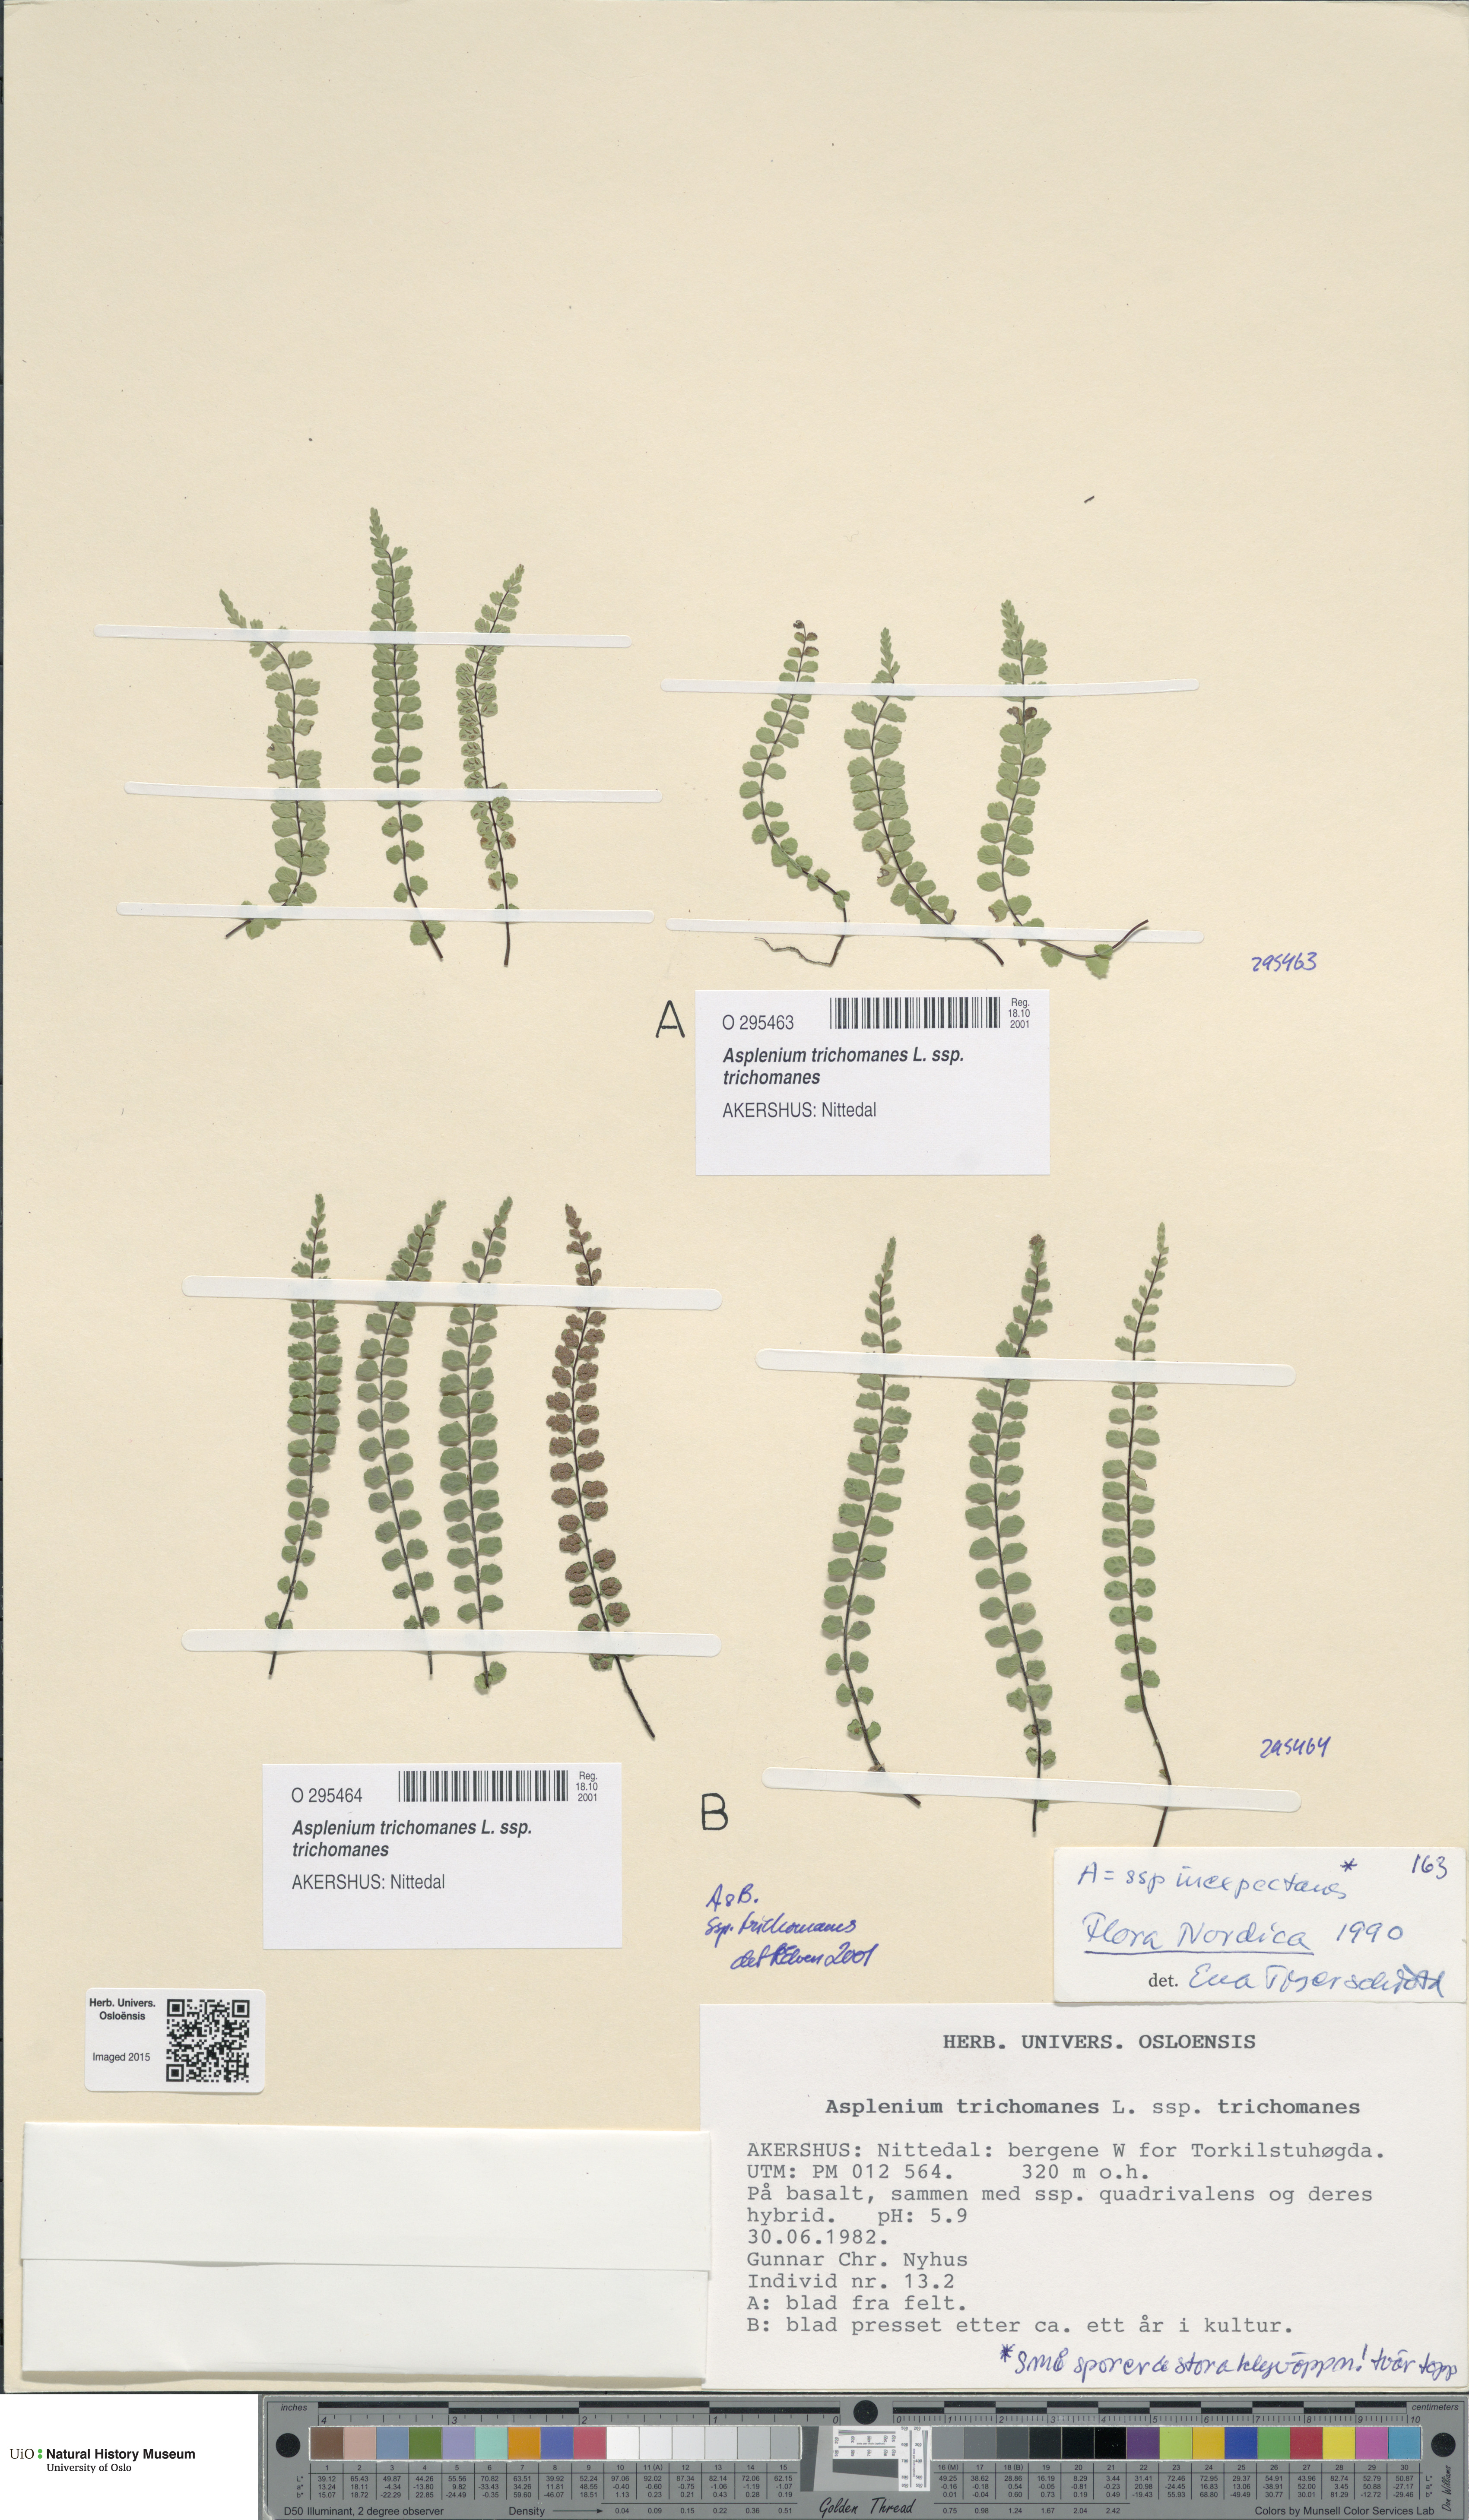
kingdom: Plantae
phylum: Tracheophyta
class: Polypodiopsida
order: Polypodiales
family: Aspleniaceae
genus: Asplenium
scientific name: Asplenium trichomanes
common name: Maidenhair spleenwort
